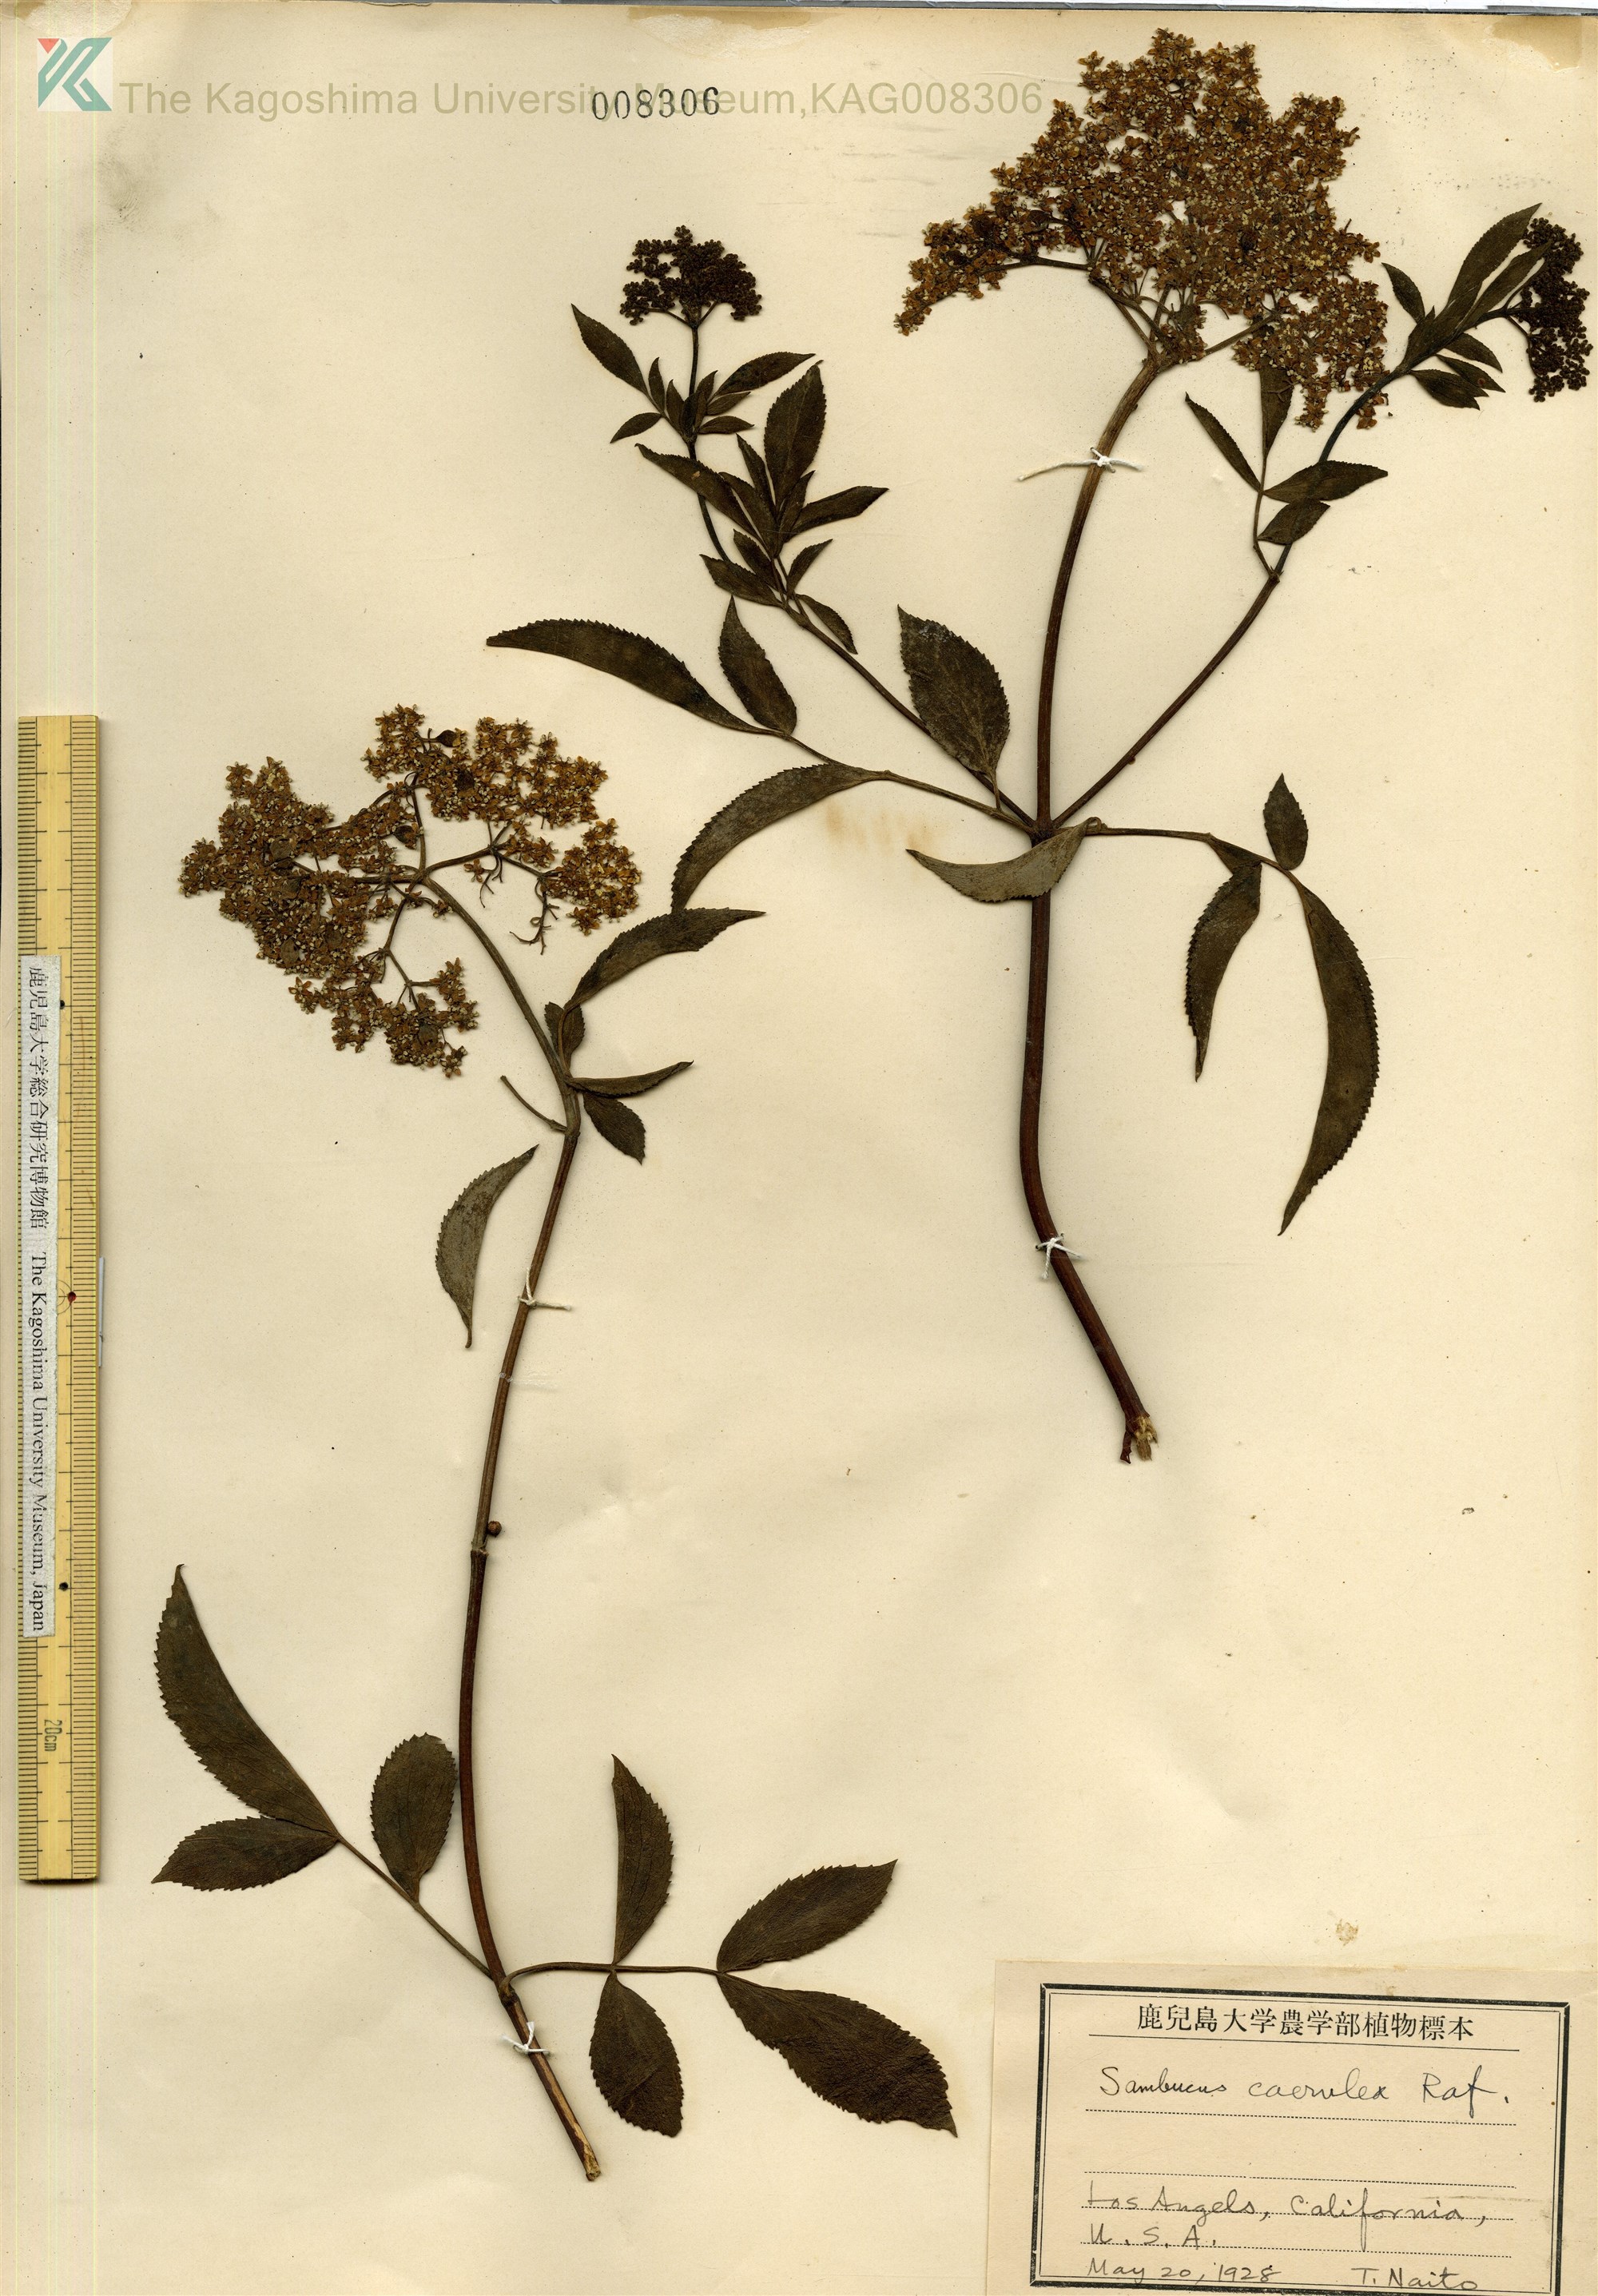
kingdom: Plantae
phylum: Tracheophyta
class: Magnoliopsida
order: Dipsacales
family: Viburnaceae
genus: Sambucus
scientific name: Sambucus cerulea
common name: Blue elder
